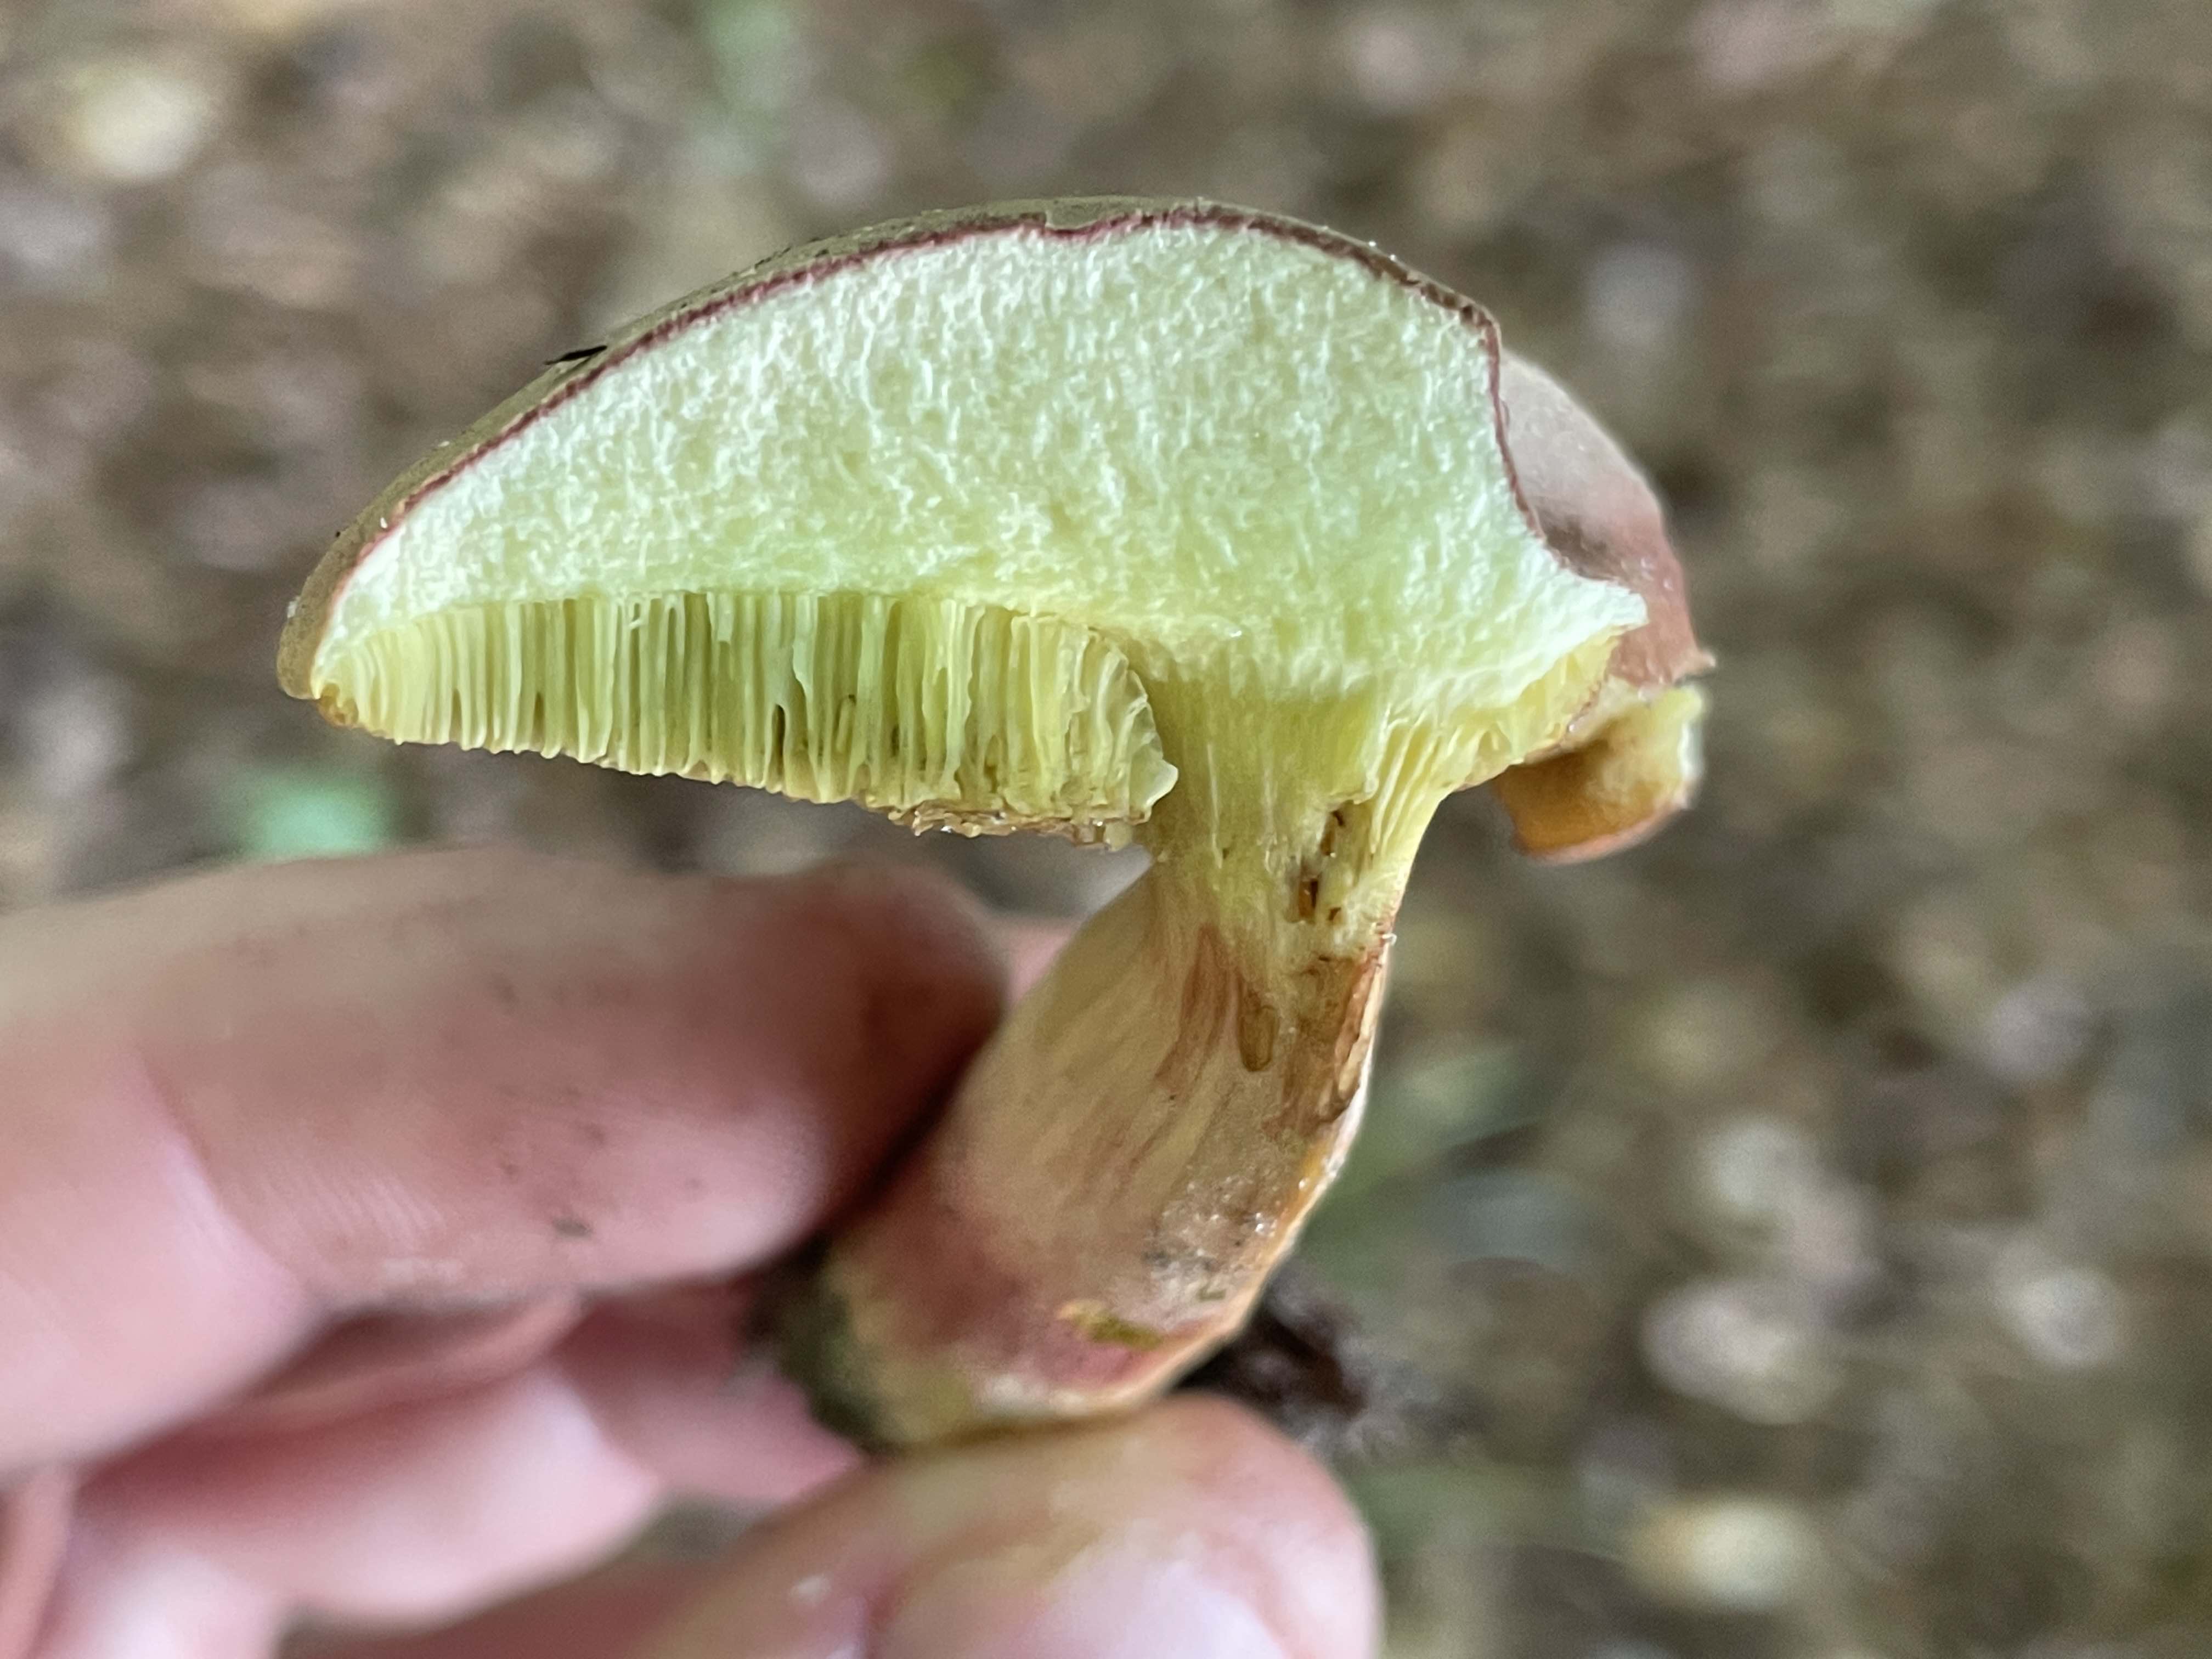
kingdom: Fungi
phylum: Basidiomycota
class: Agaricomycetes
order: Boletales
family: Boletaceae
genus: Xerocomellus
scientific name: Xerocomellus pruinatus
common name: dugget rørhat
